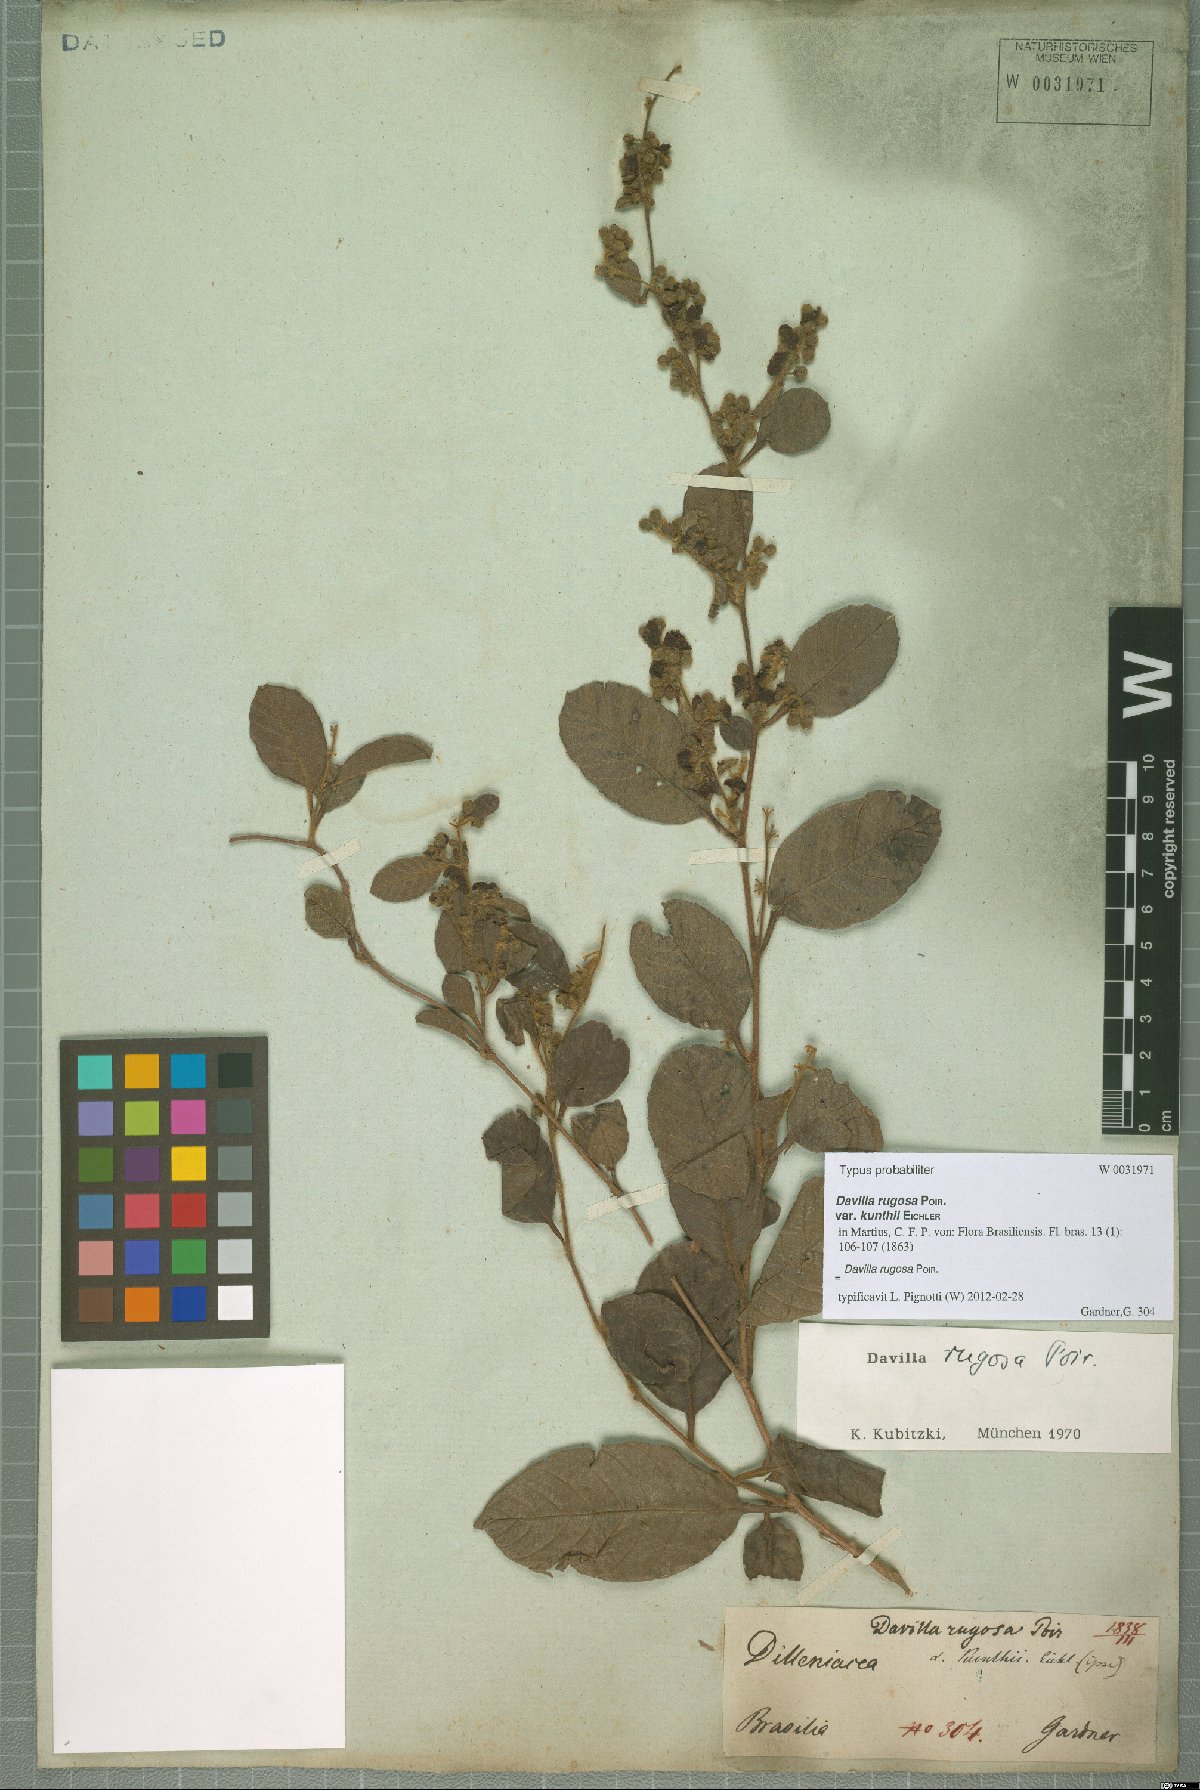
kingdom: Plantae
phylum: Tracheophyta
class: Magnoliopsida
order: Dilleniales
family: Dilleniaceae
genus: Davilla
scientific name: Davilla rugosa
